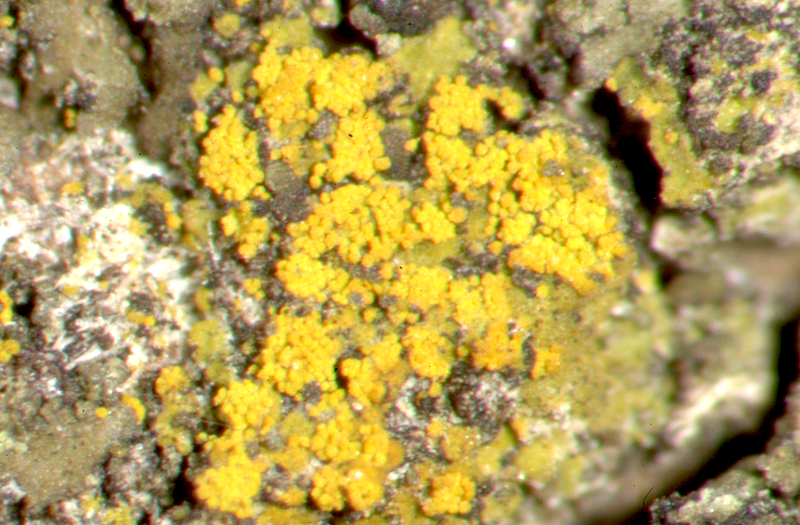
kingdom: Fungi
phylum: Ascomycota
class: Lecanoromycetes
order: Caliciales
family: Physciaceae
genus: Hyperphyscia
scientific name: Hyperphyscia adglutinata
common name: Grainy shadow-crust lichen
